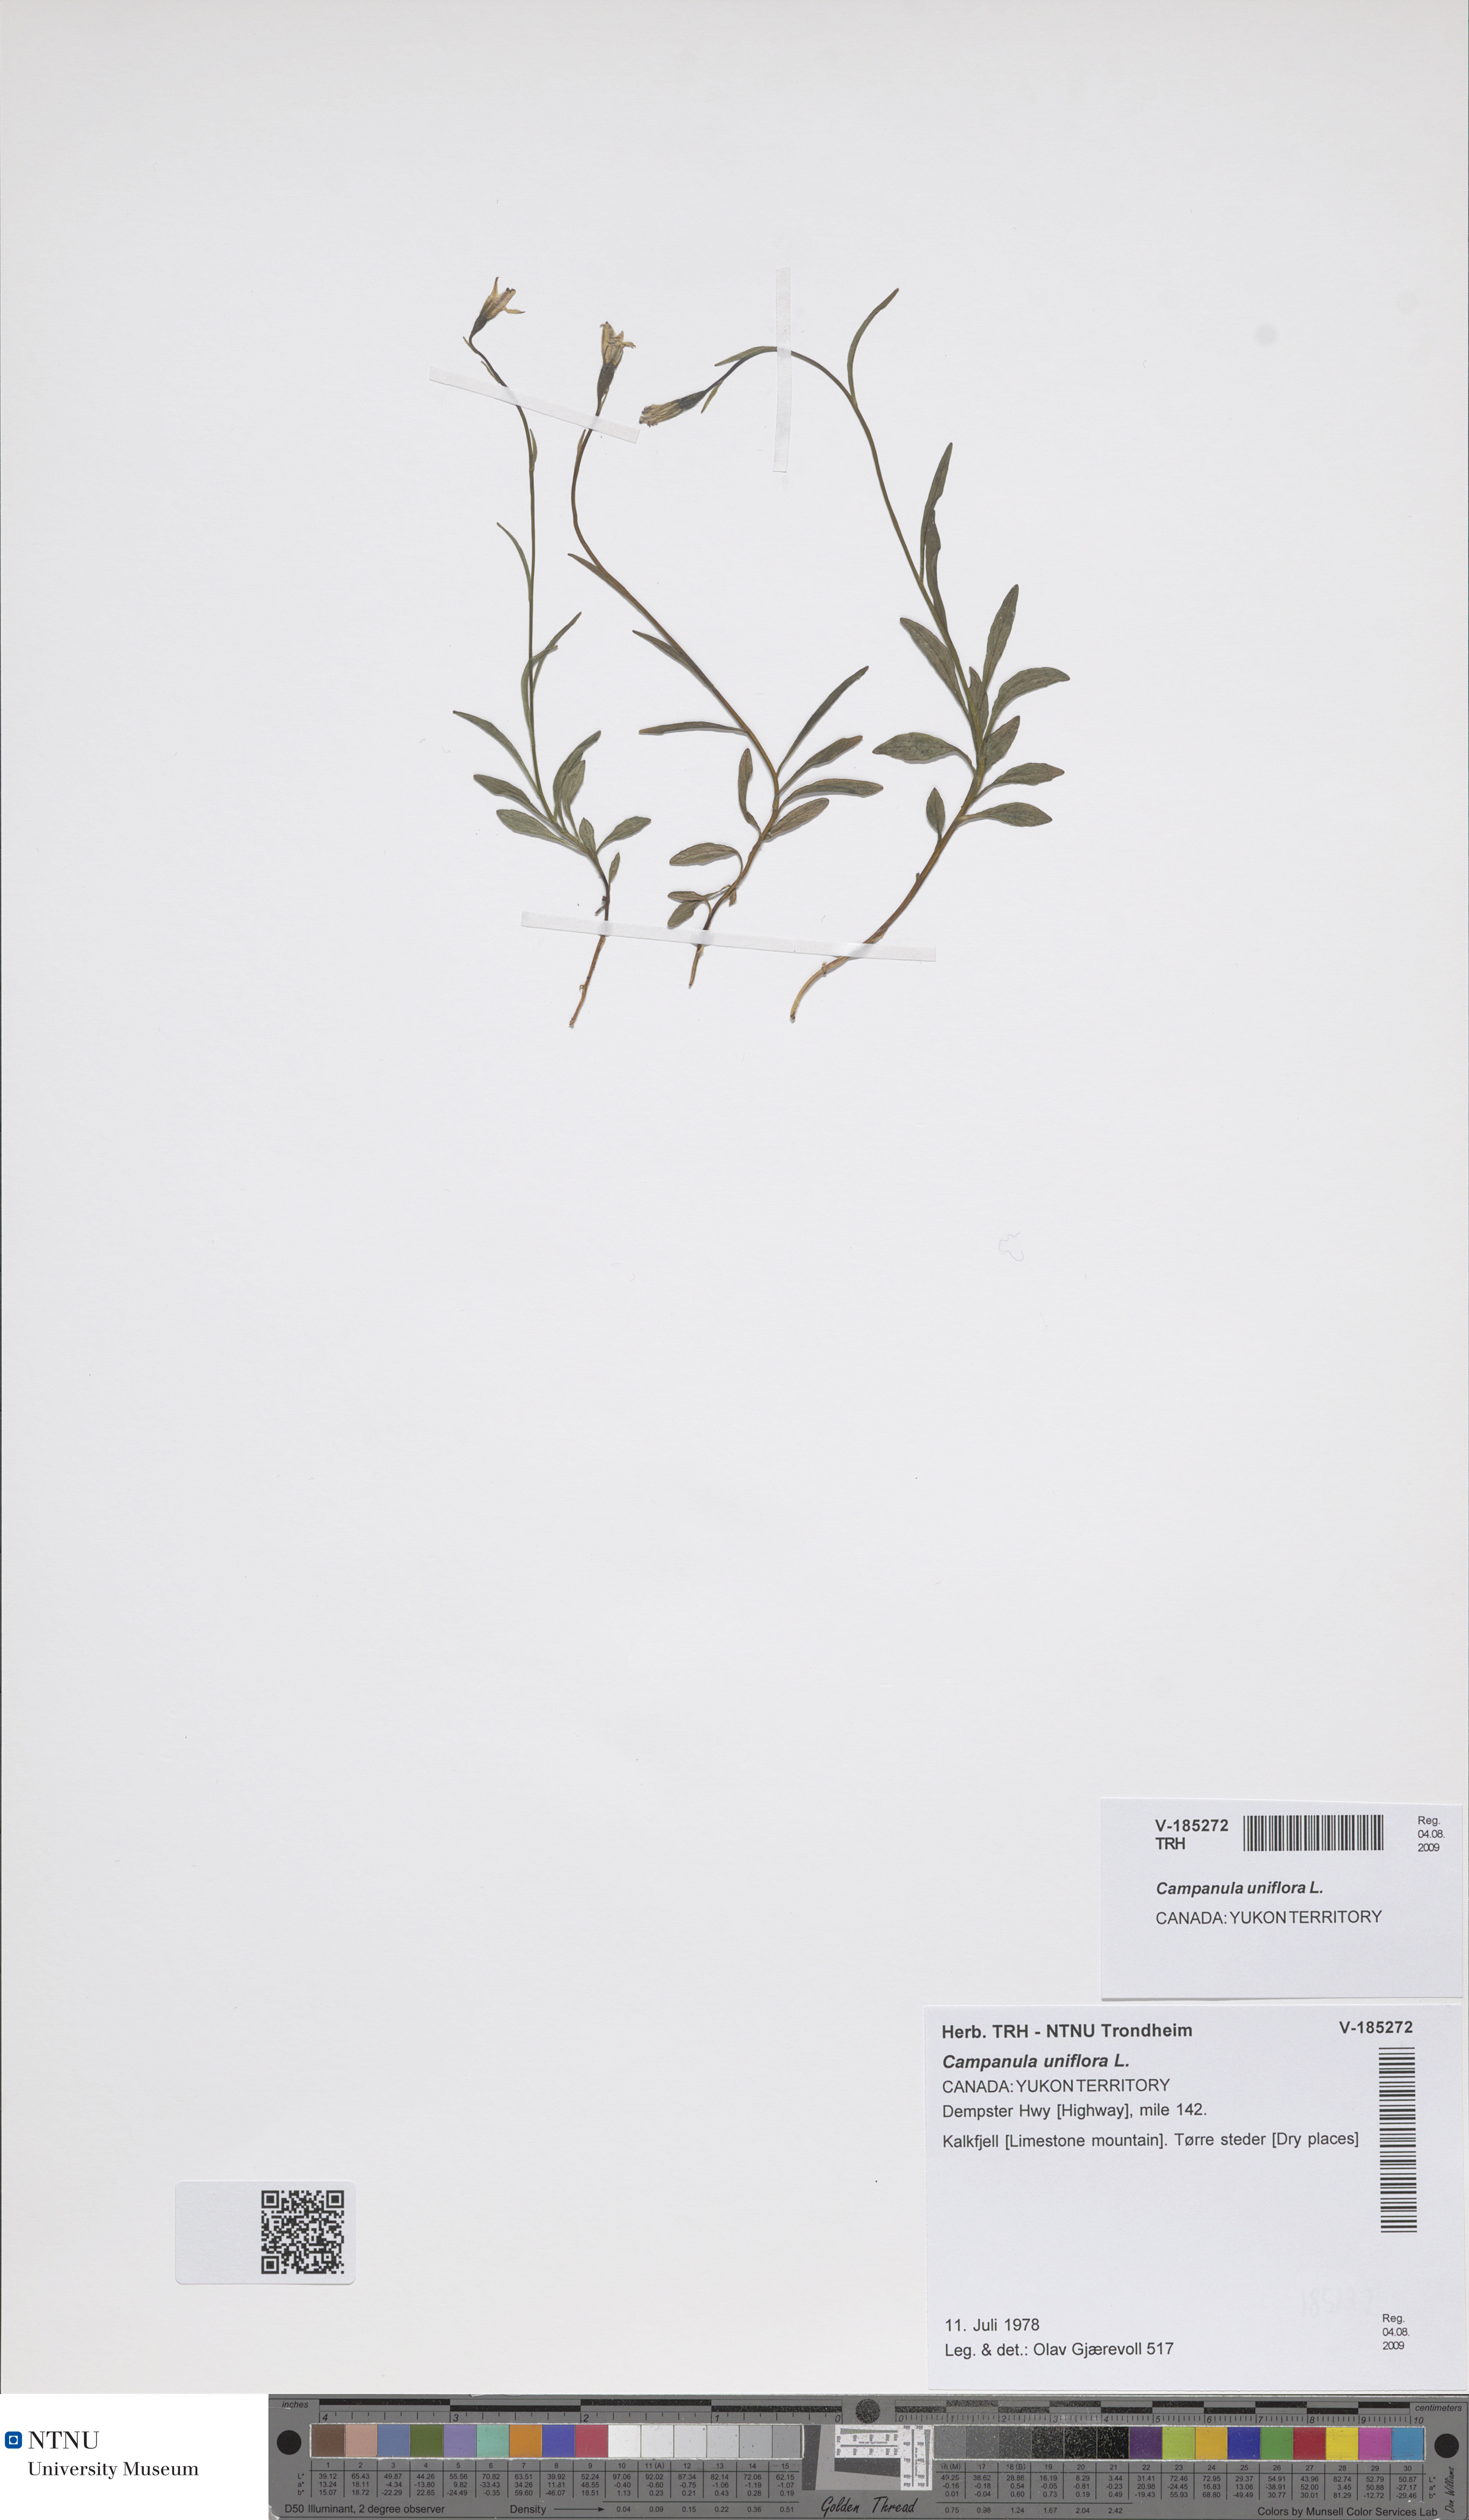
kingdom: Plantae
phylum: Tracheophyta
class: Magnoliopsida
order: Asterales
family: Campanulaceae
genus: Melanocalyx
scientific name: Melanocalyx uniflora
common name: Alpine harebell
